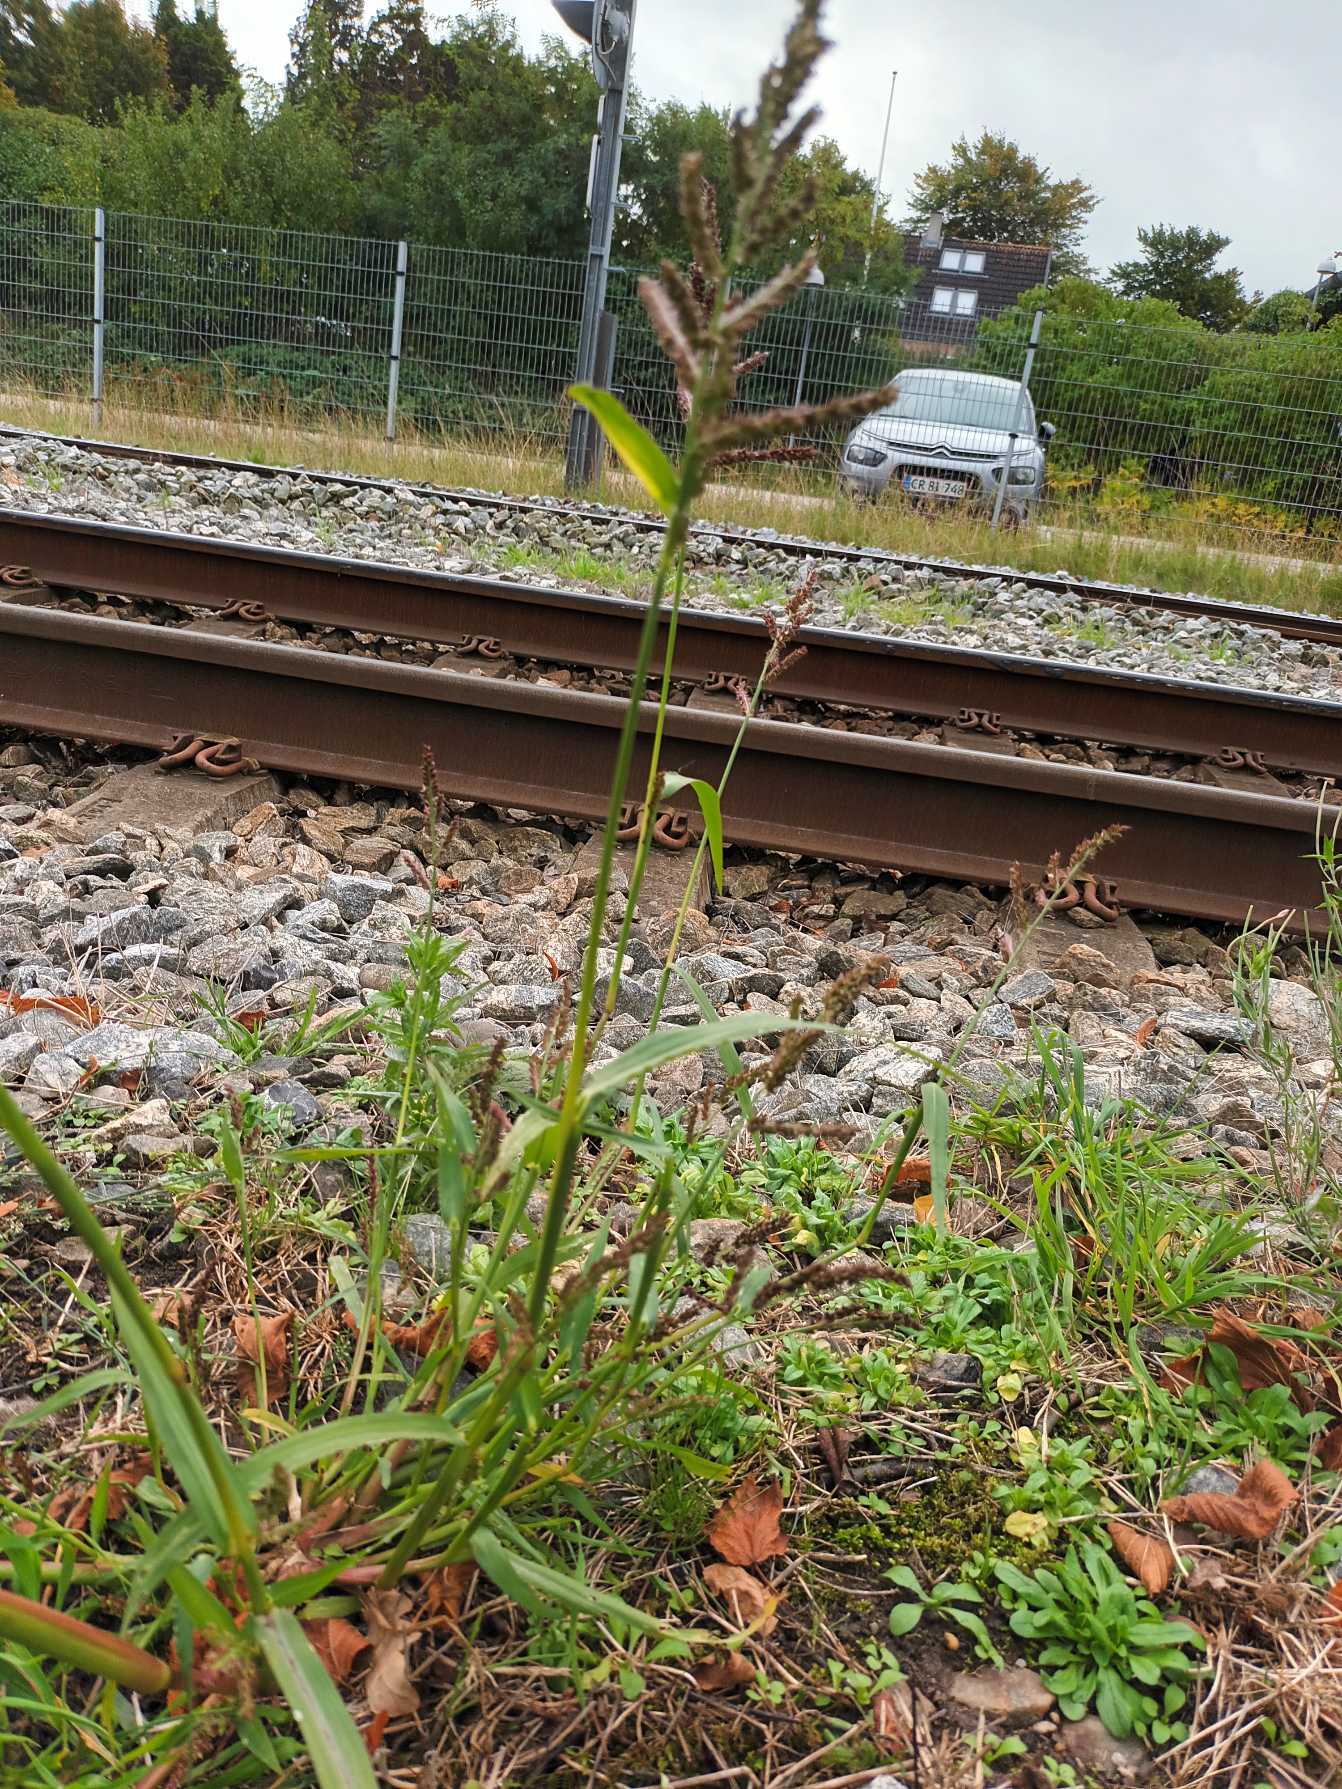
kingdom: Plantae
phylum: Tracheophyta
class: Liliopsida
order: Poales
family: Poaceae
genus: Echinochloa
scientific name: Echinochloa crus-galli
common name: Almindelig hanespore
